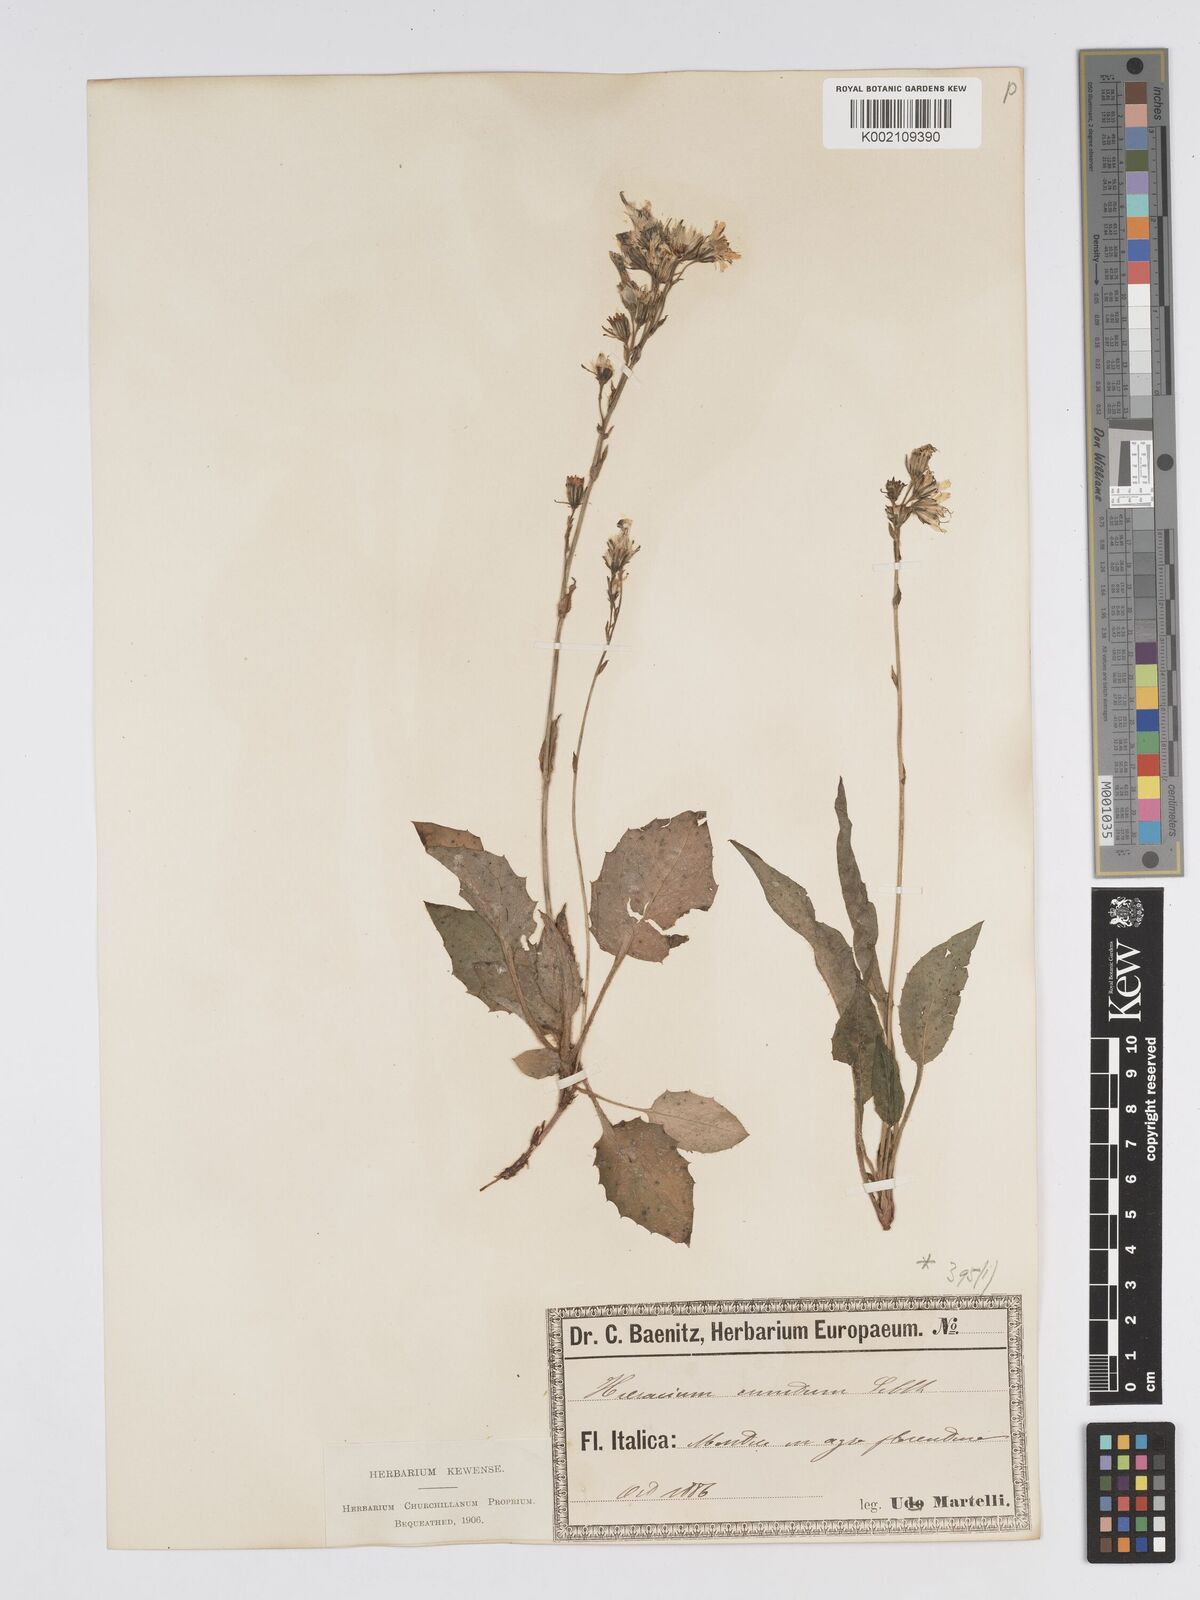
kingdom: Plantae
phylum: Tracheophyta
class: Magnoliopsida
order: Asterales
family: Asteraceae
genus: Hieracium
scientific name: Hieracium racemosum
